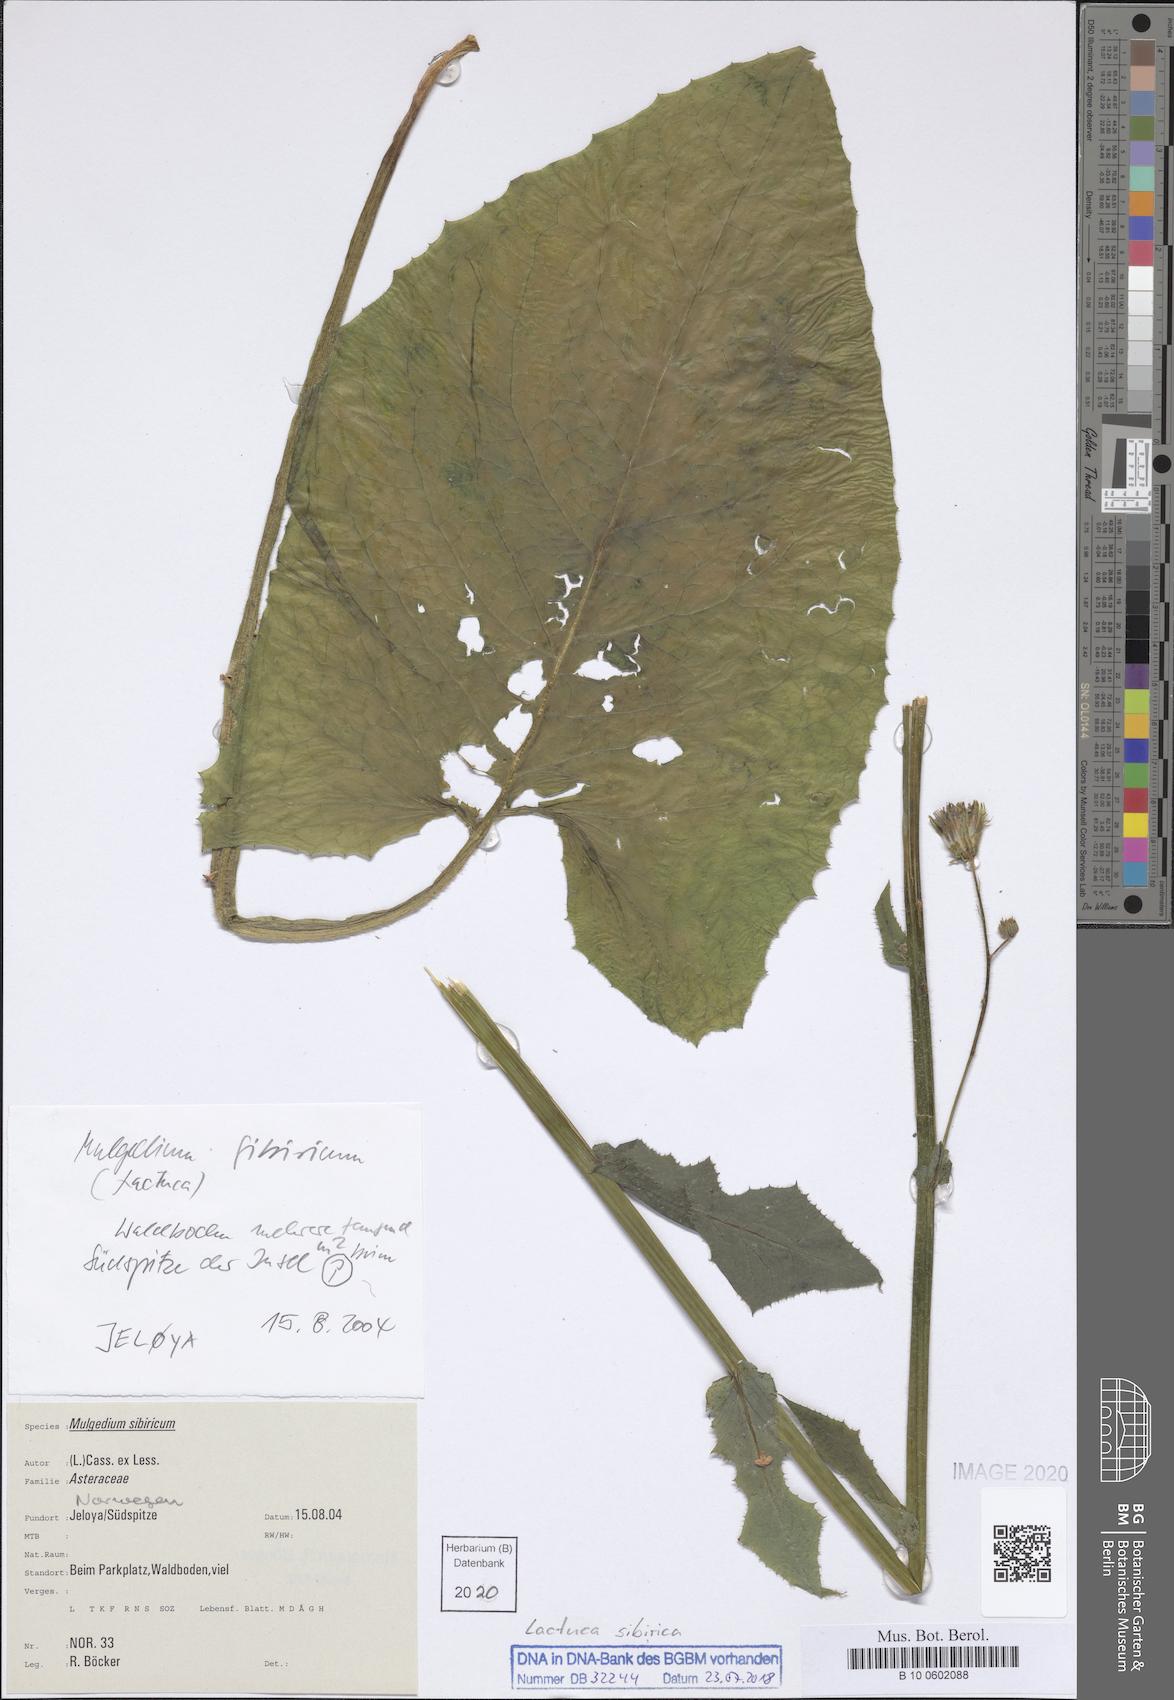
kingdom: Plantae
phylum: Tracheophyta
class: Magnoliopsida
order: Asterales
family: Asteraceae
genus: Lactuca
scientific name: Lactuca sibirica
